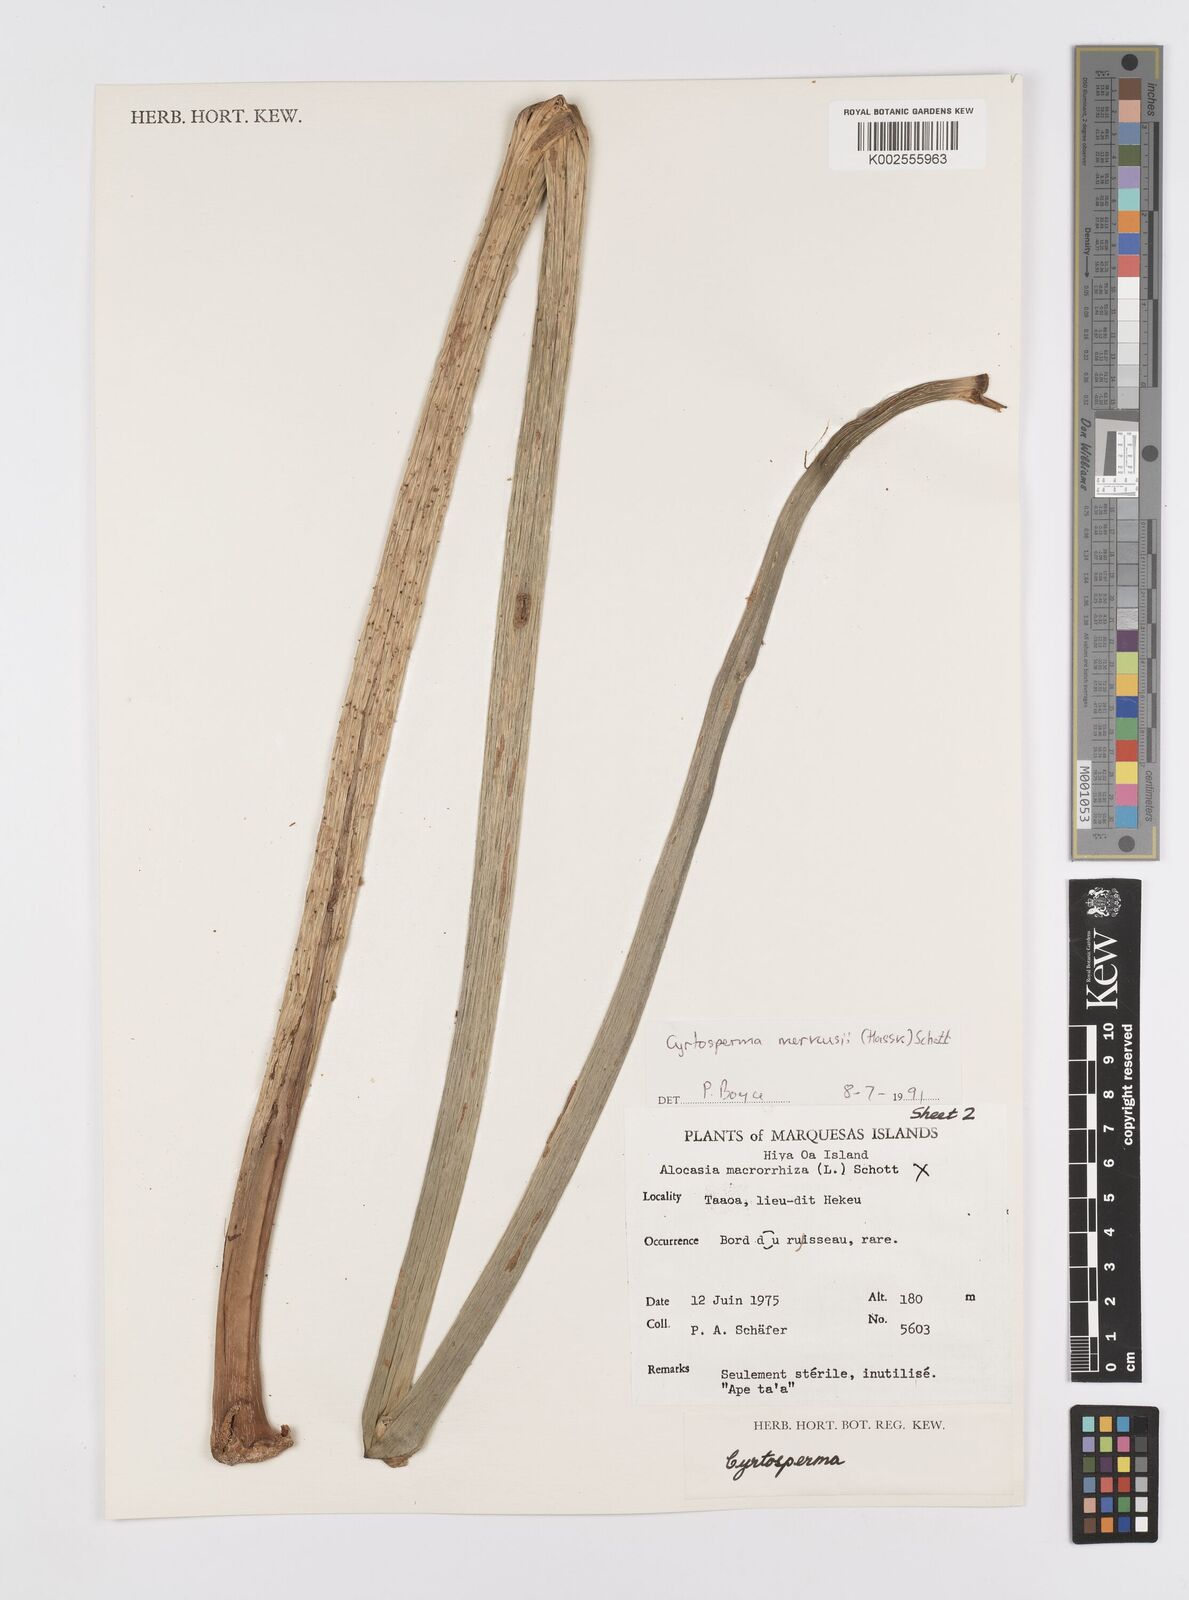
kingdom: Plantae
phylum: Tracheophyta
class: Liliopsida
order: Alismatales
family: Araceae
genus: Cyrtosperma
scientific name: Cyrtosperma merkusii
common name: Giant swamp-taro
